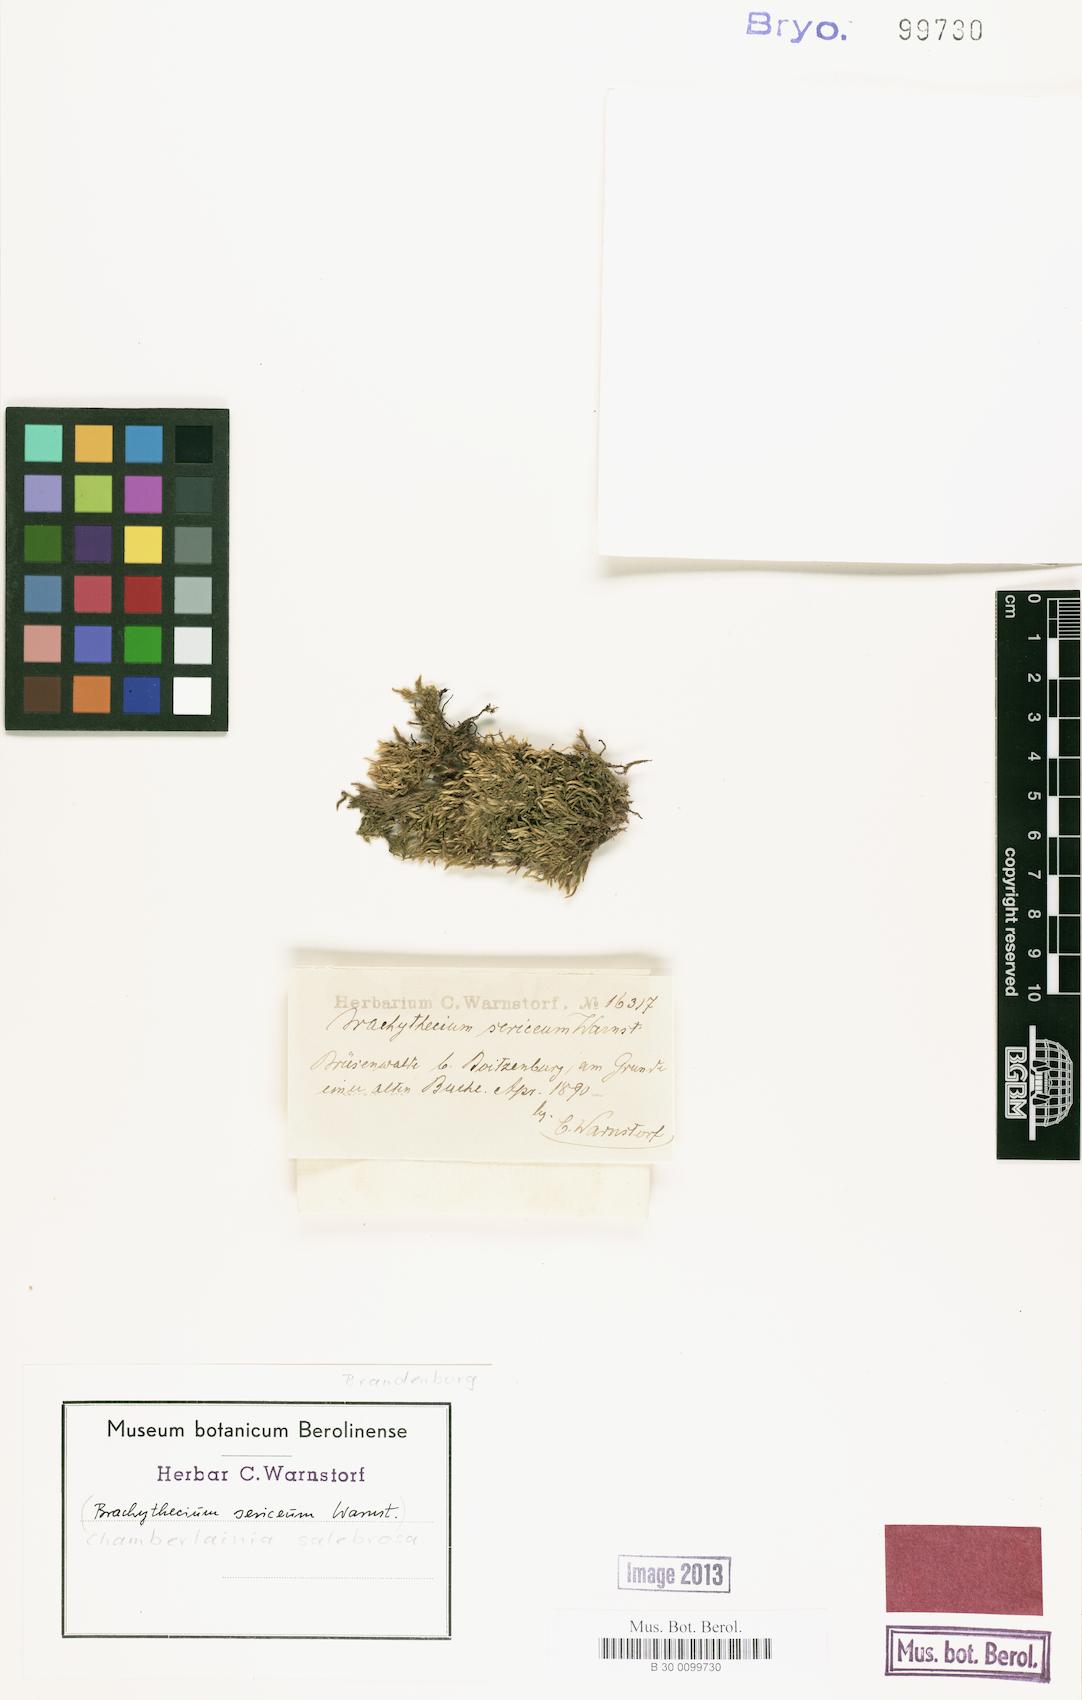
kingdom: Plantae
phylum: Bryophyta
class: Bryopsida
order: Hypnales
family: Brachytheciaceae
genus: Brachythecium
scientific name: Brachythecium salebrosum
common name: Smooth-stalk feather-moss
